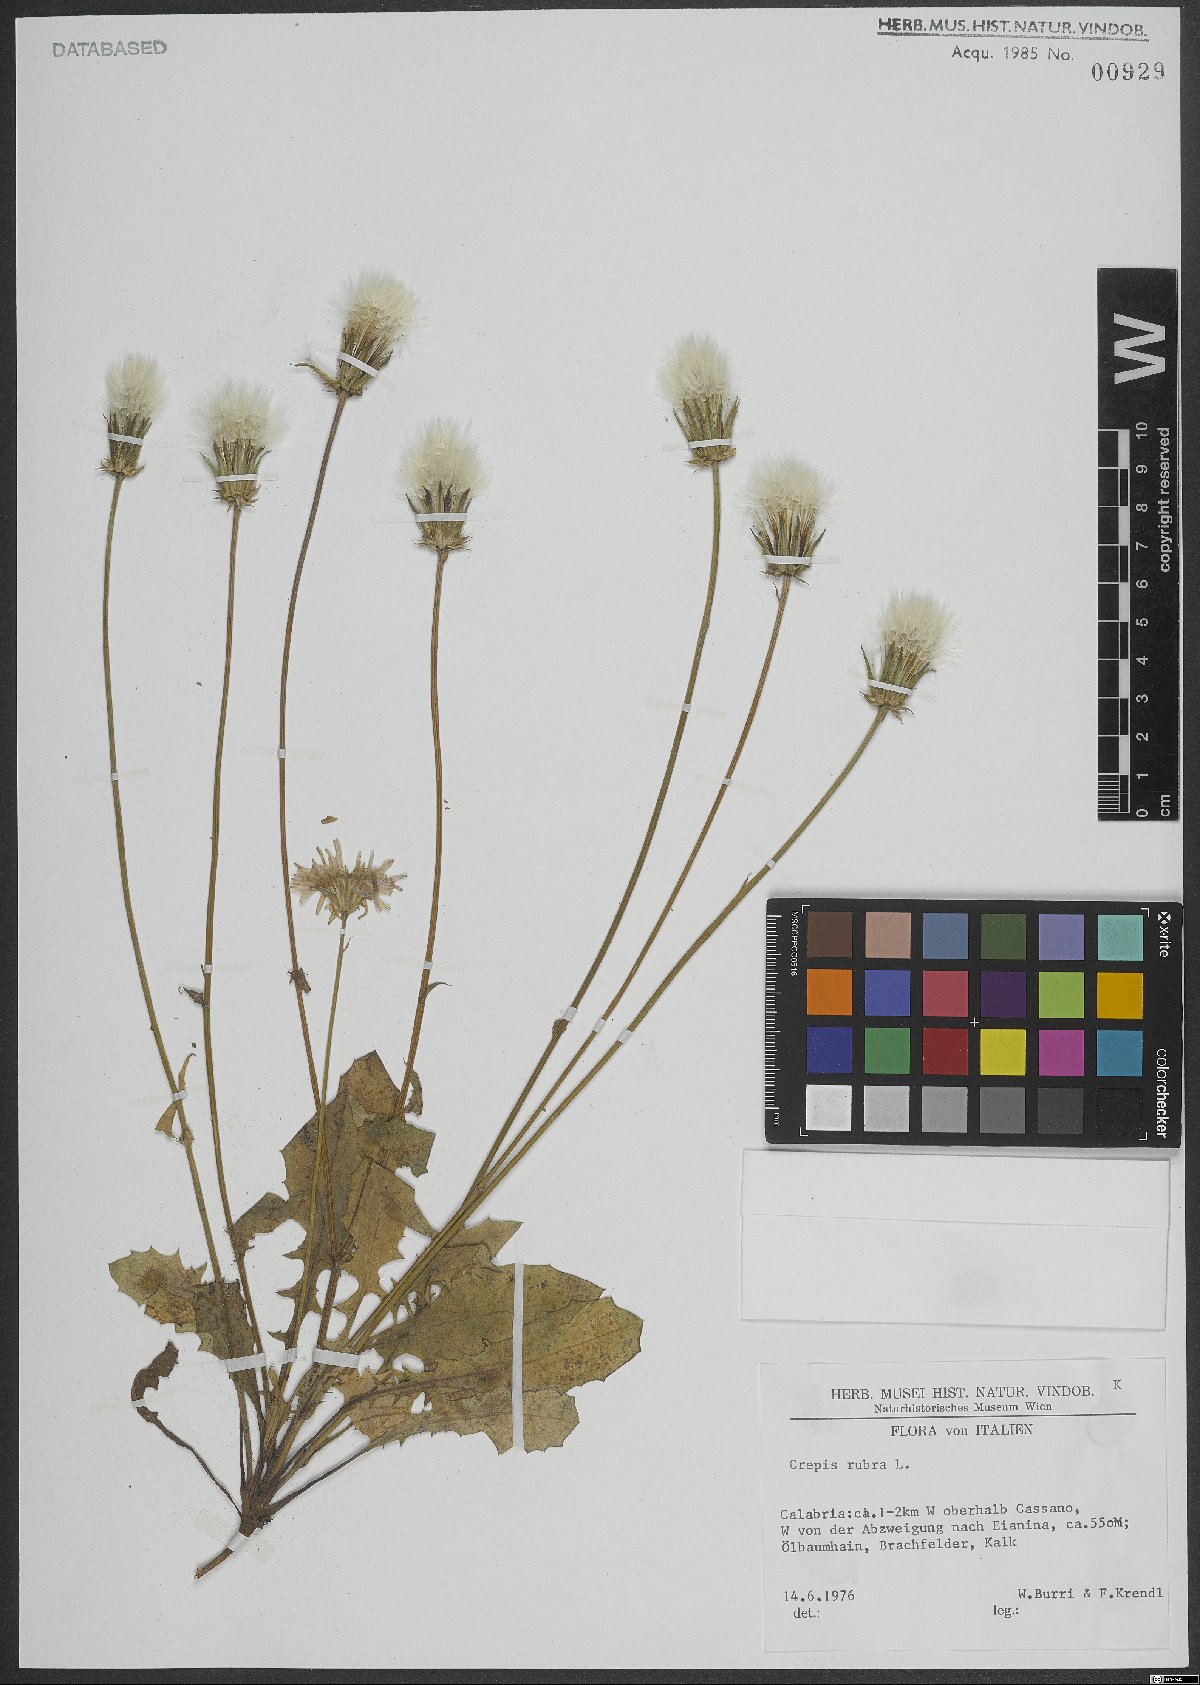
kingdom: Plantae
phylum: Tracheophyta
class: Magnoliopsida
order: Asterales
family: Asteraceae
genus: Crepis
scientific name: Crepis rubra
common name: Pink hawk's-beard
